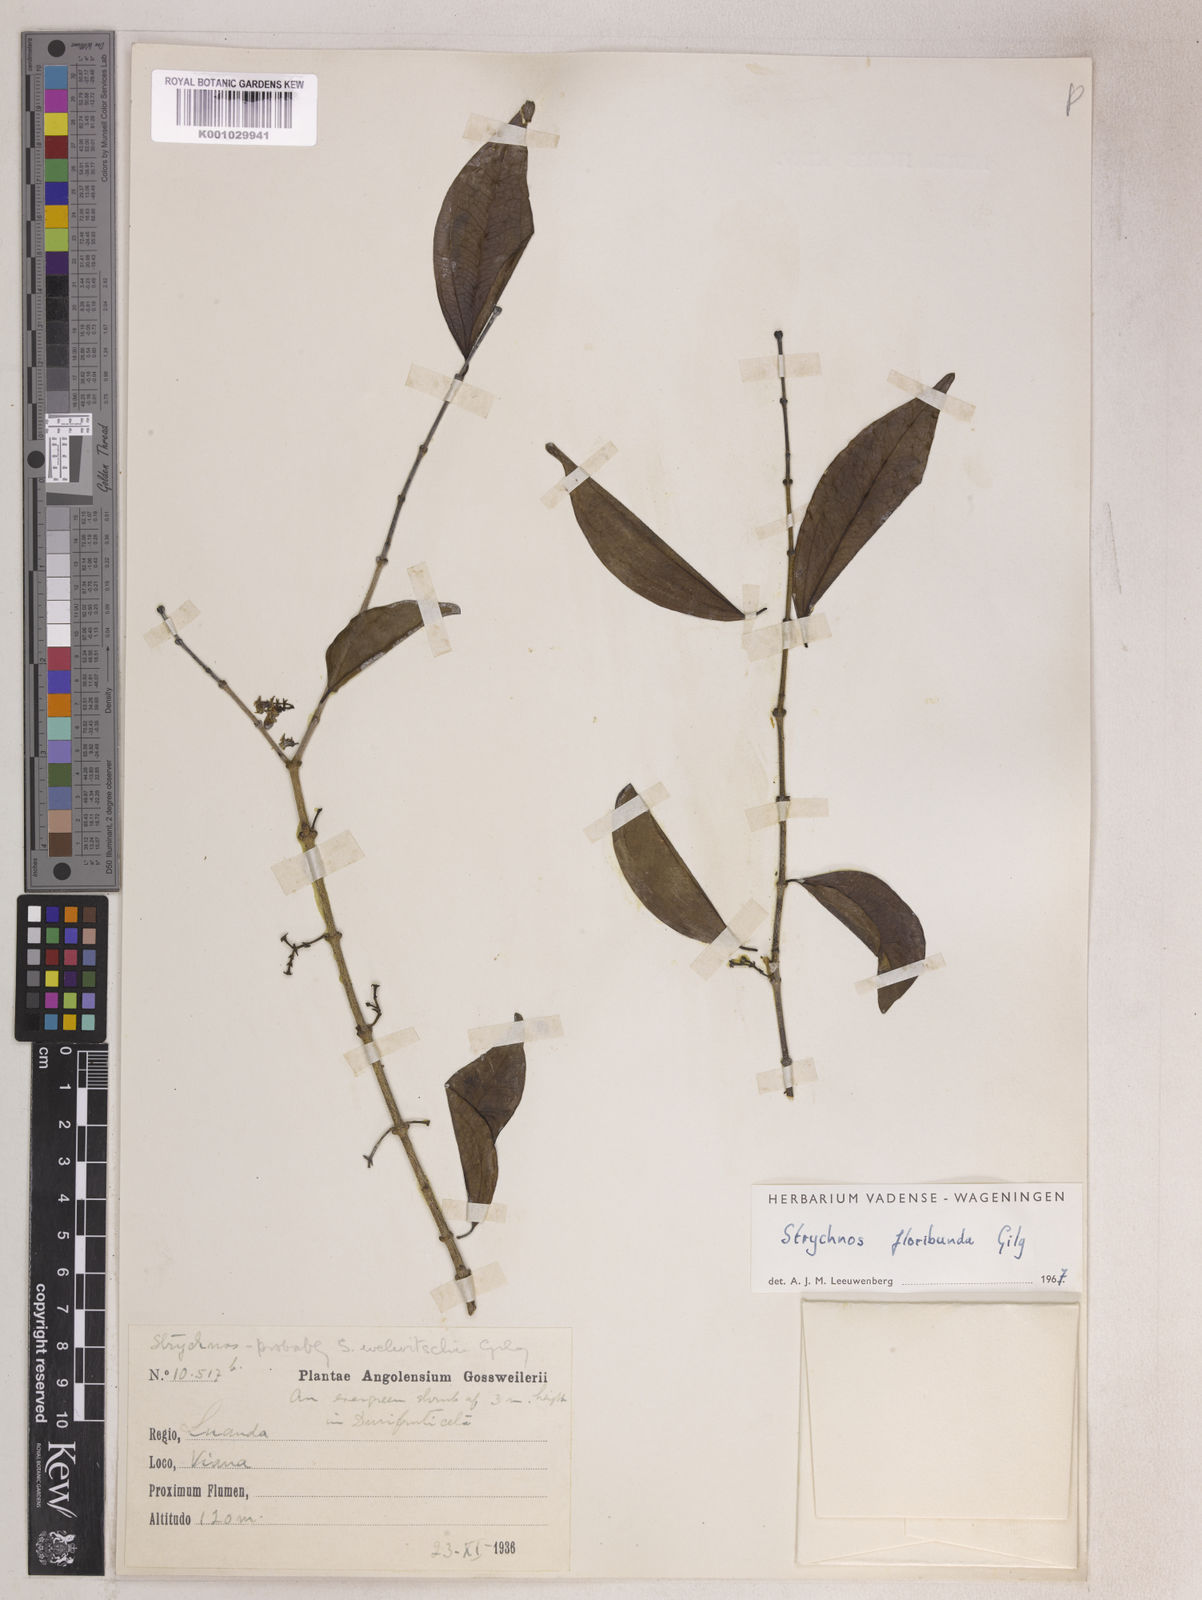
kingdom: Plantae
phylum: Tracheophyta
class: Magnoliopsida
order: Gentianales
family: Loganiaceae
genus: Strychnos
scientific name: Strychnos floribunda
